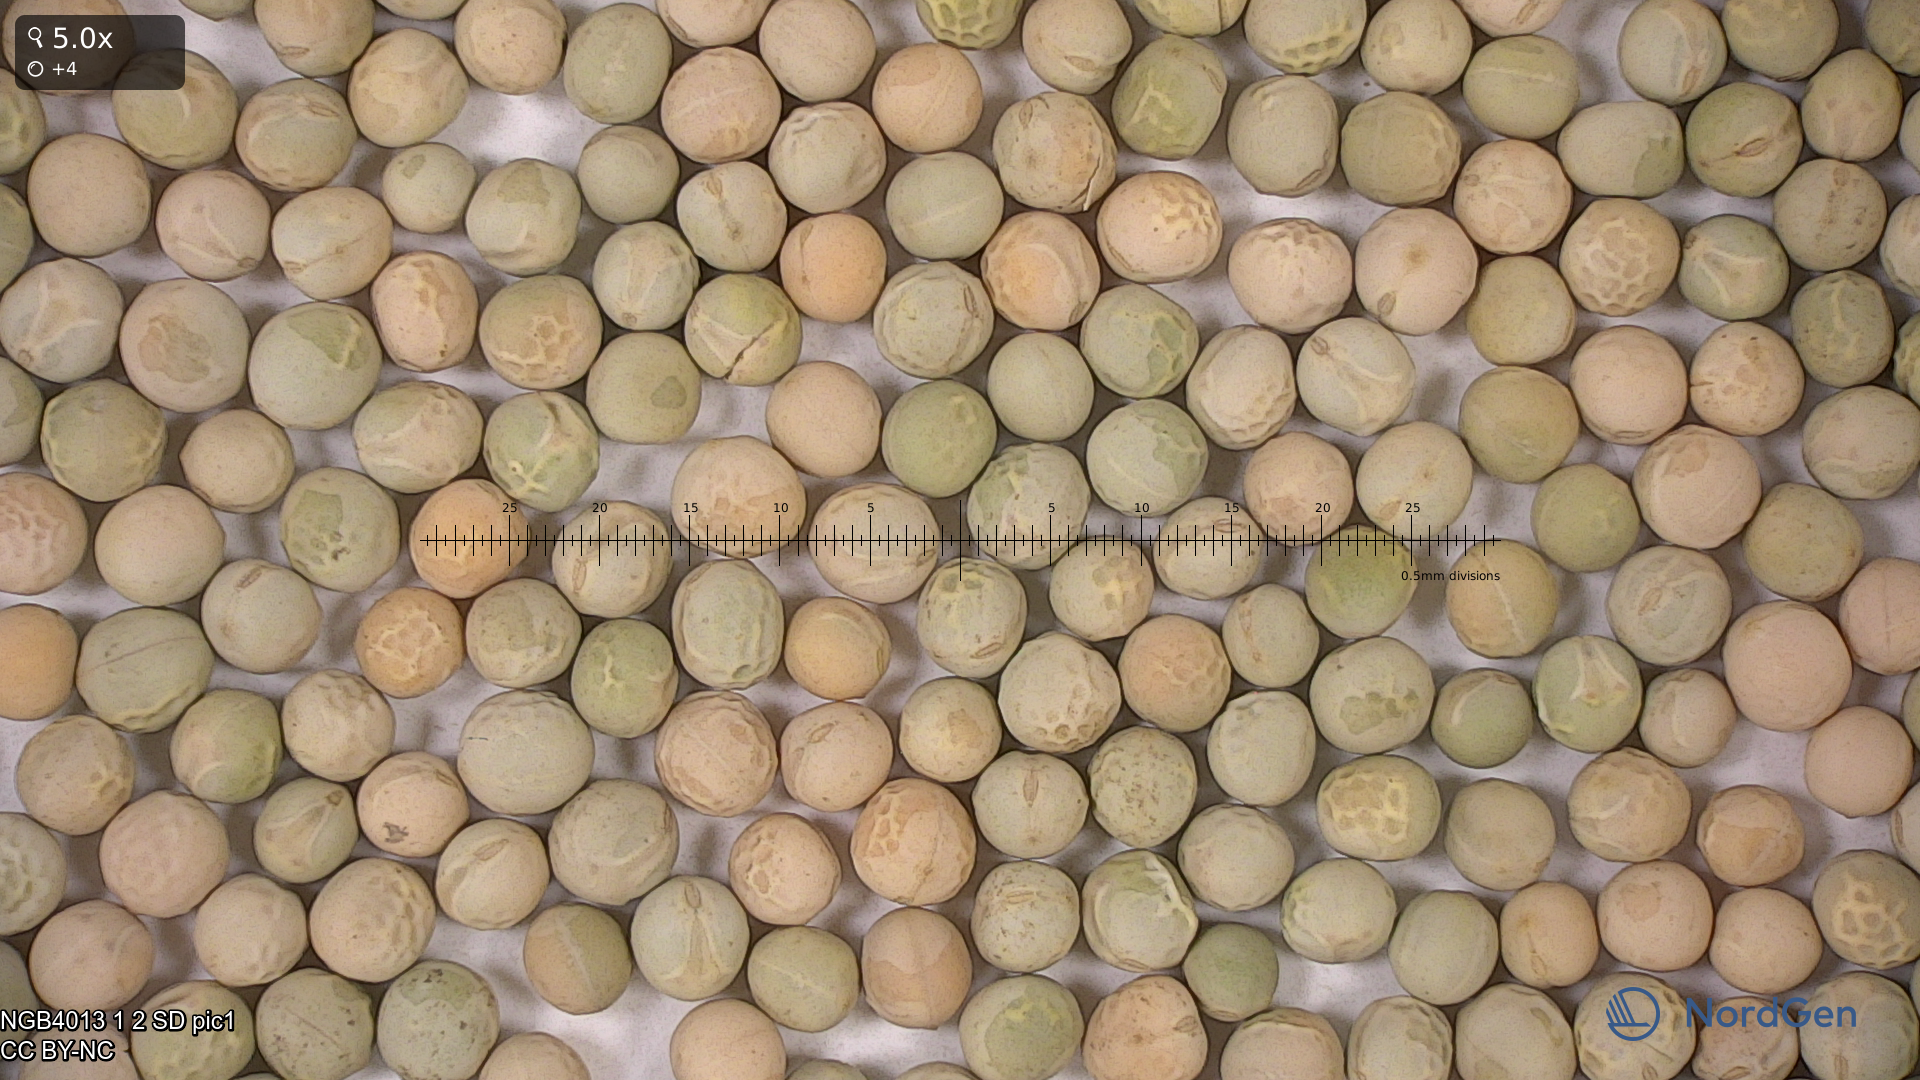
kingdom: Plantae
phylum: Tracheophyta
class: Magnoliopsida
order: Fabales
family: Fabaceae
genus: Lathyrus
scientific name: Lathyrus oleraceus
